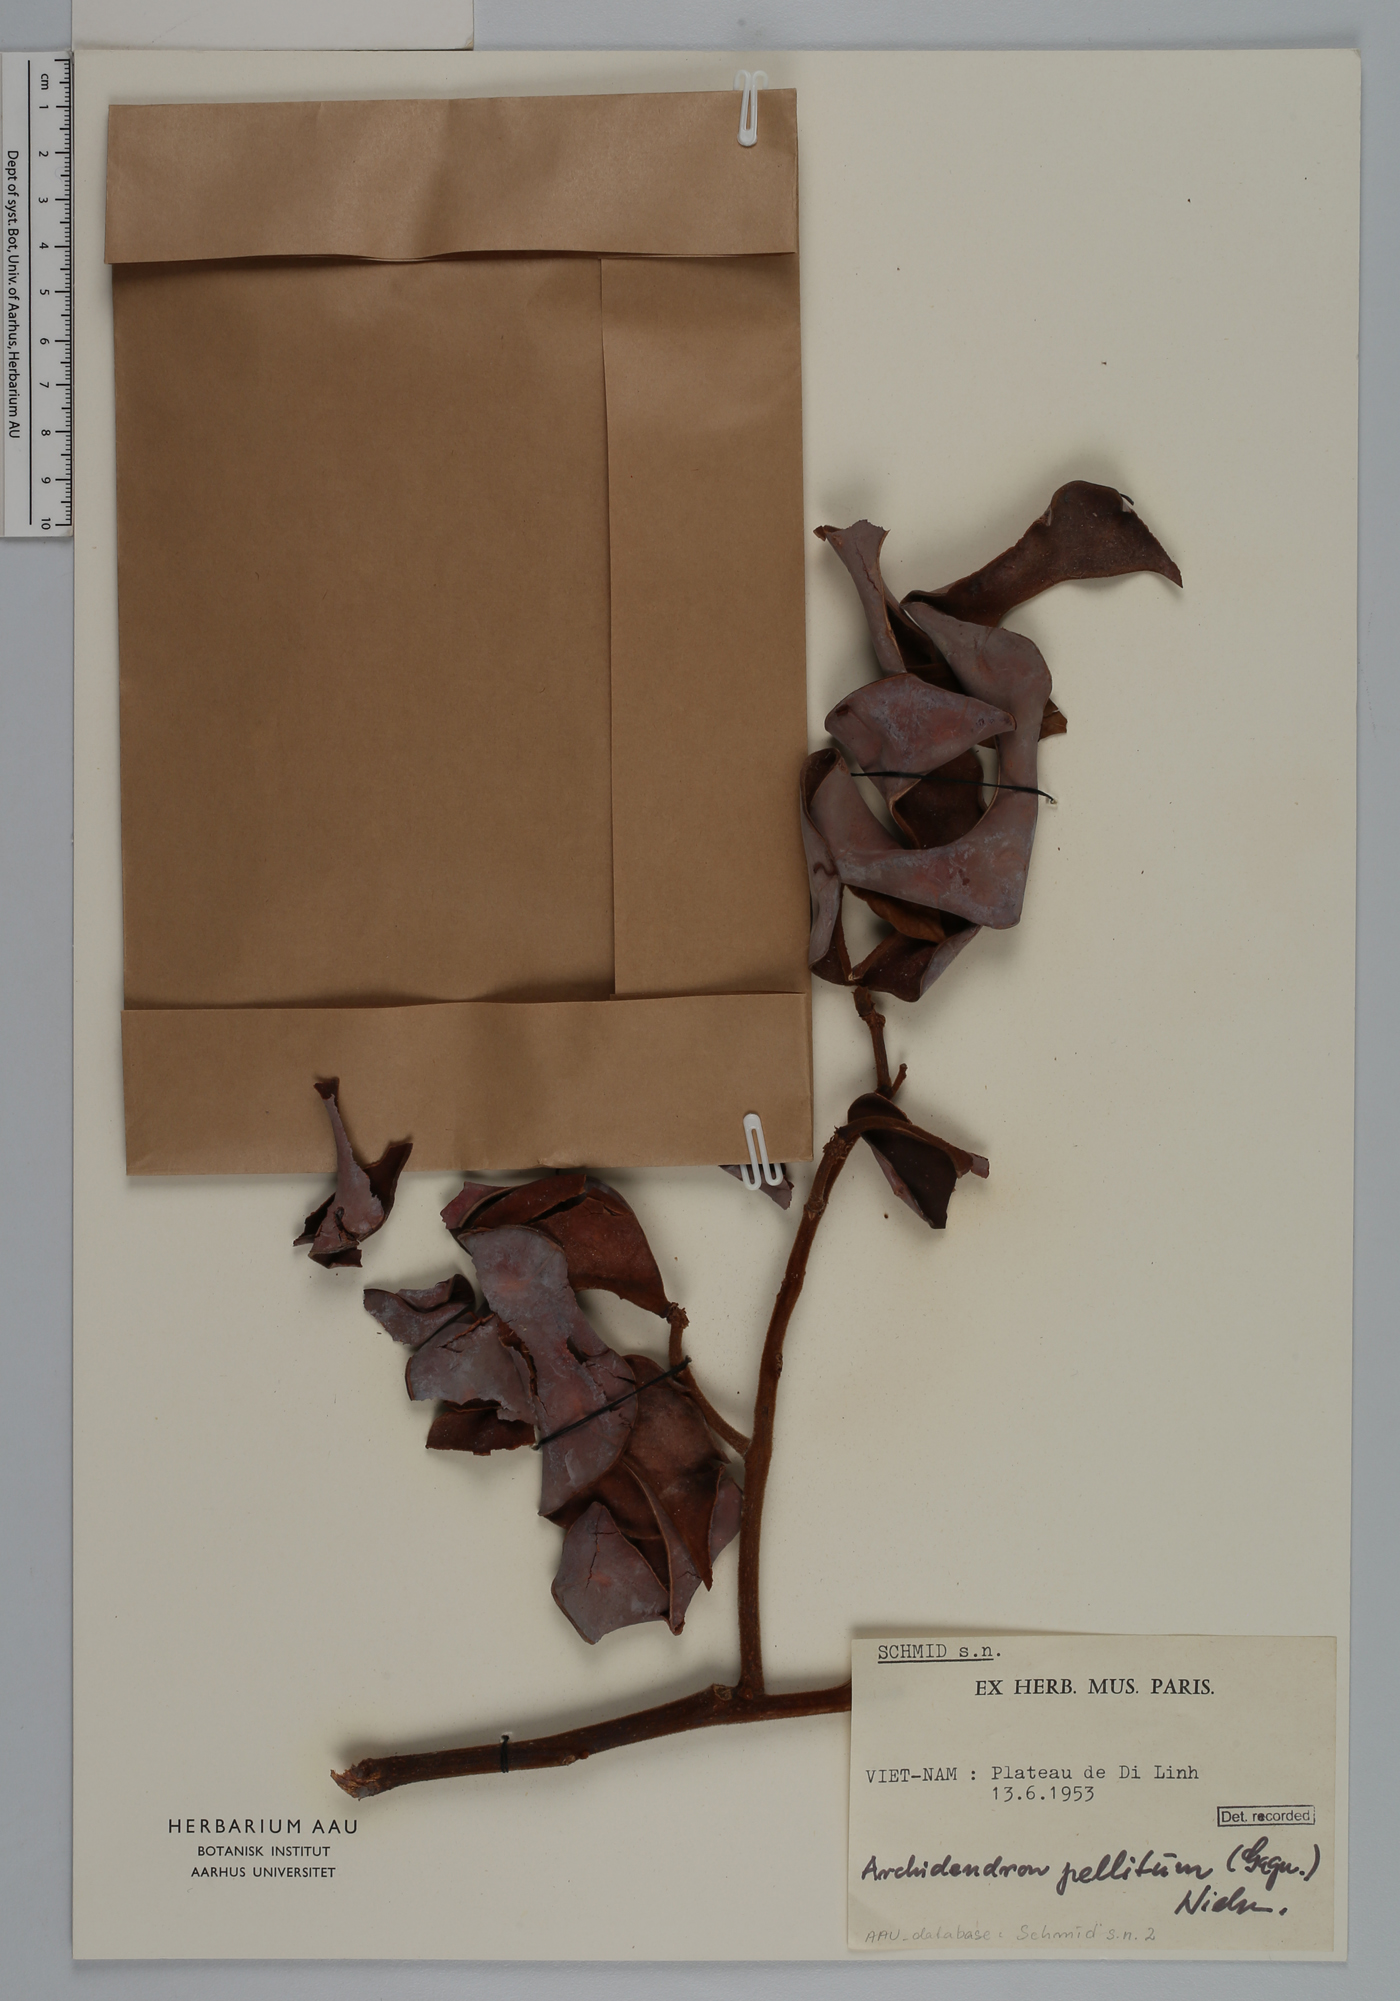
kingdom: Plantae
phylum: Tracheophyta
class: Magnoliopsida
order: Fabales
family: Fabaceae
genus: Archidendron
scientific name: Archidendron pellitum
